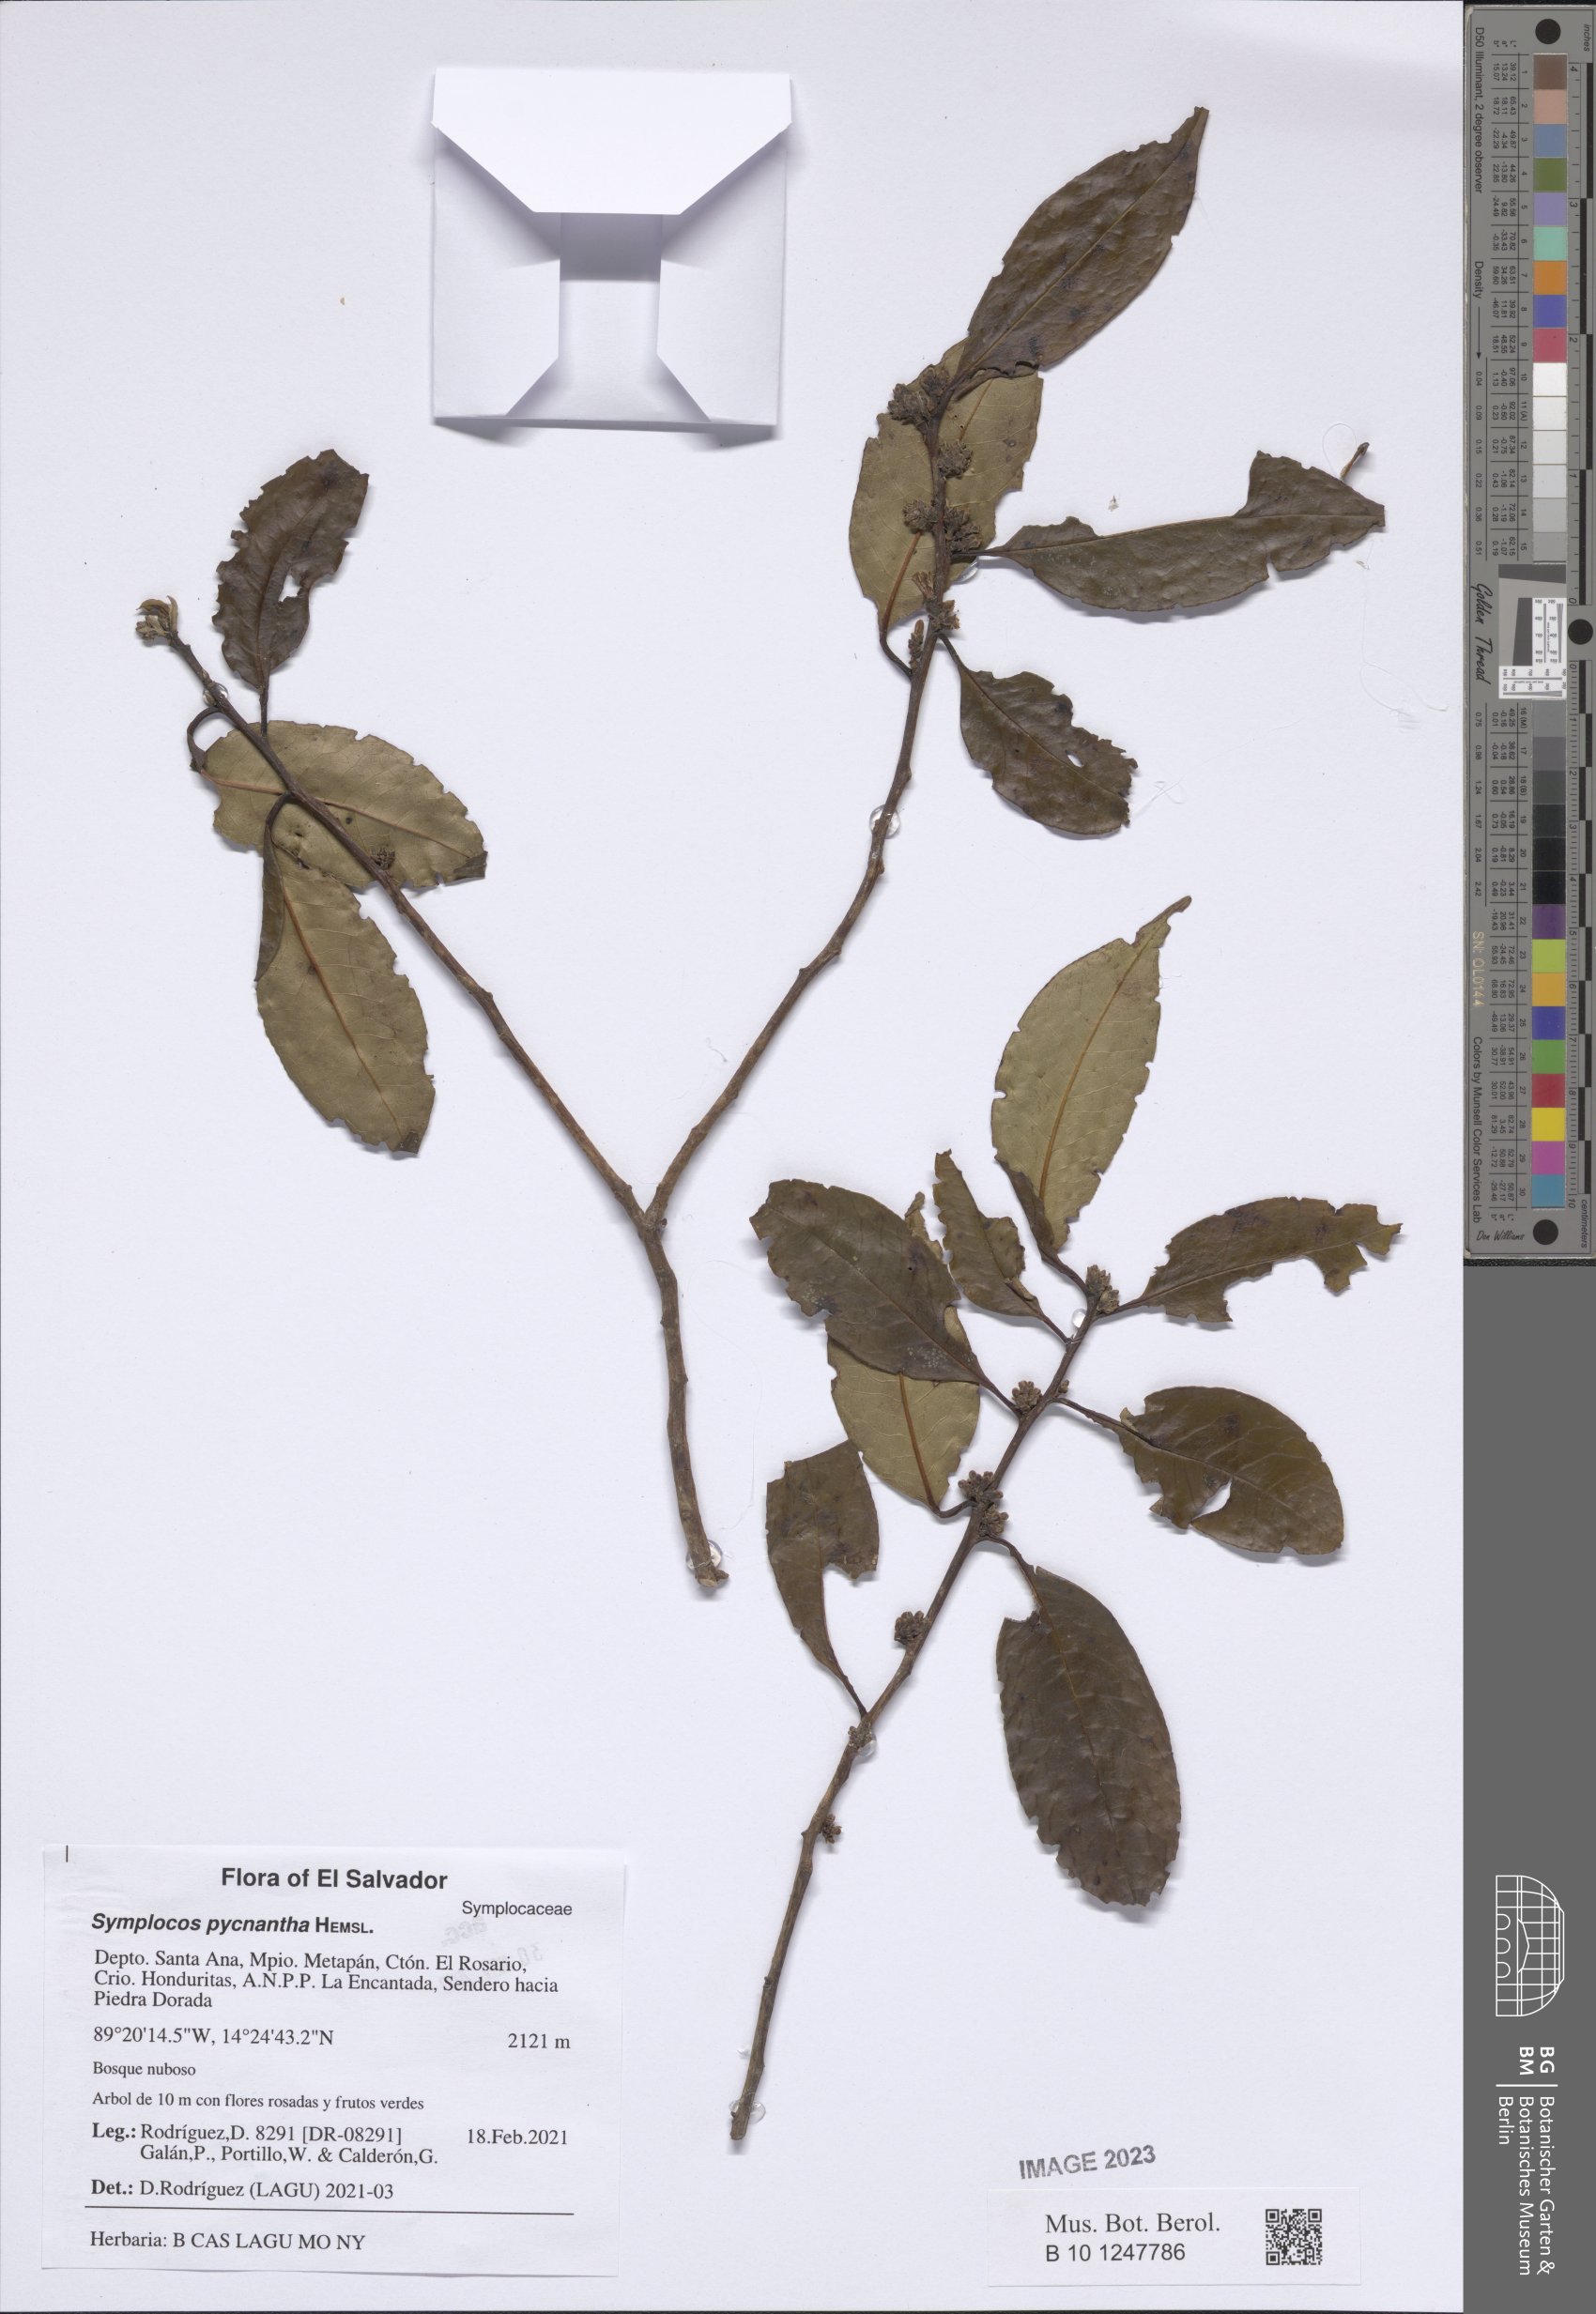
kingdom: Plantae
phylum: Tracheophyta
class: Magnoliopsida
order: Ericales
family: Symplocaceae
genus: Symplocos
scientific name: Symplocos pycnantha
